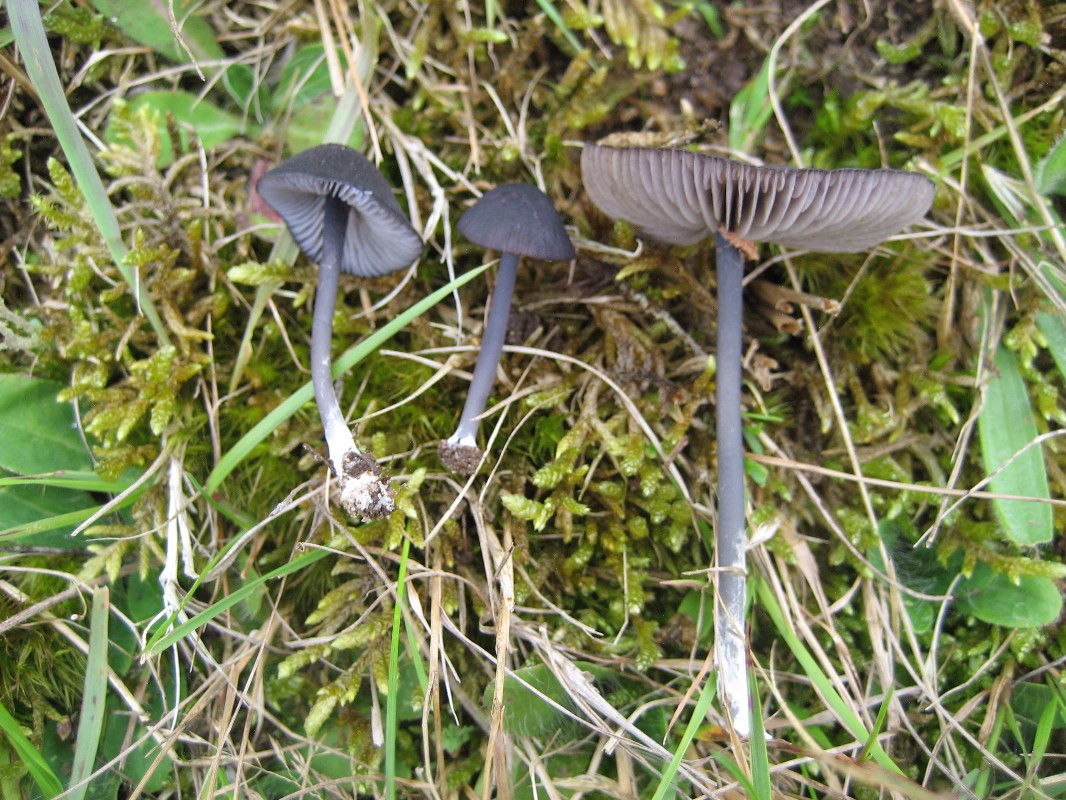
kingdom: Fungi
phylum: Basidiomycota
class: Agaricomycetes
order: Agaricales
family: Entolomataceae
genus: Entoloma
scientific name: Entoloma chalybeum
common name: blåbladet rødblad
